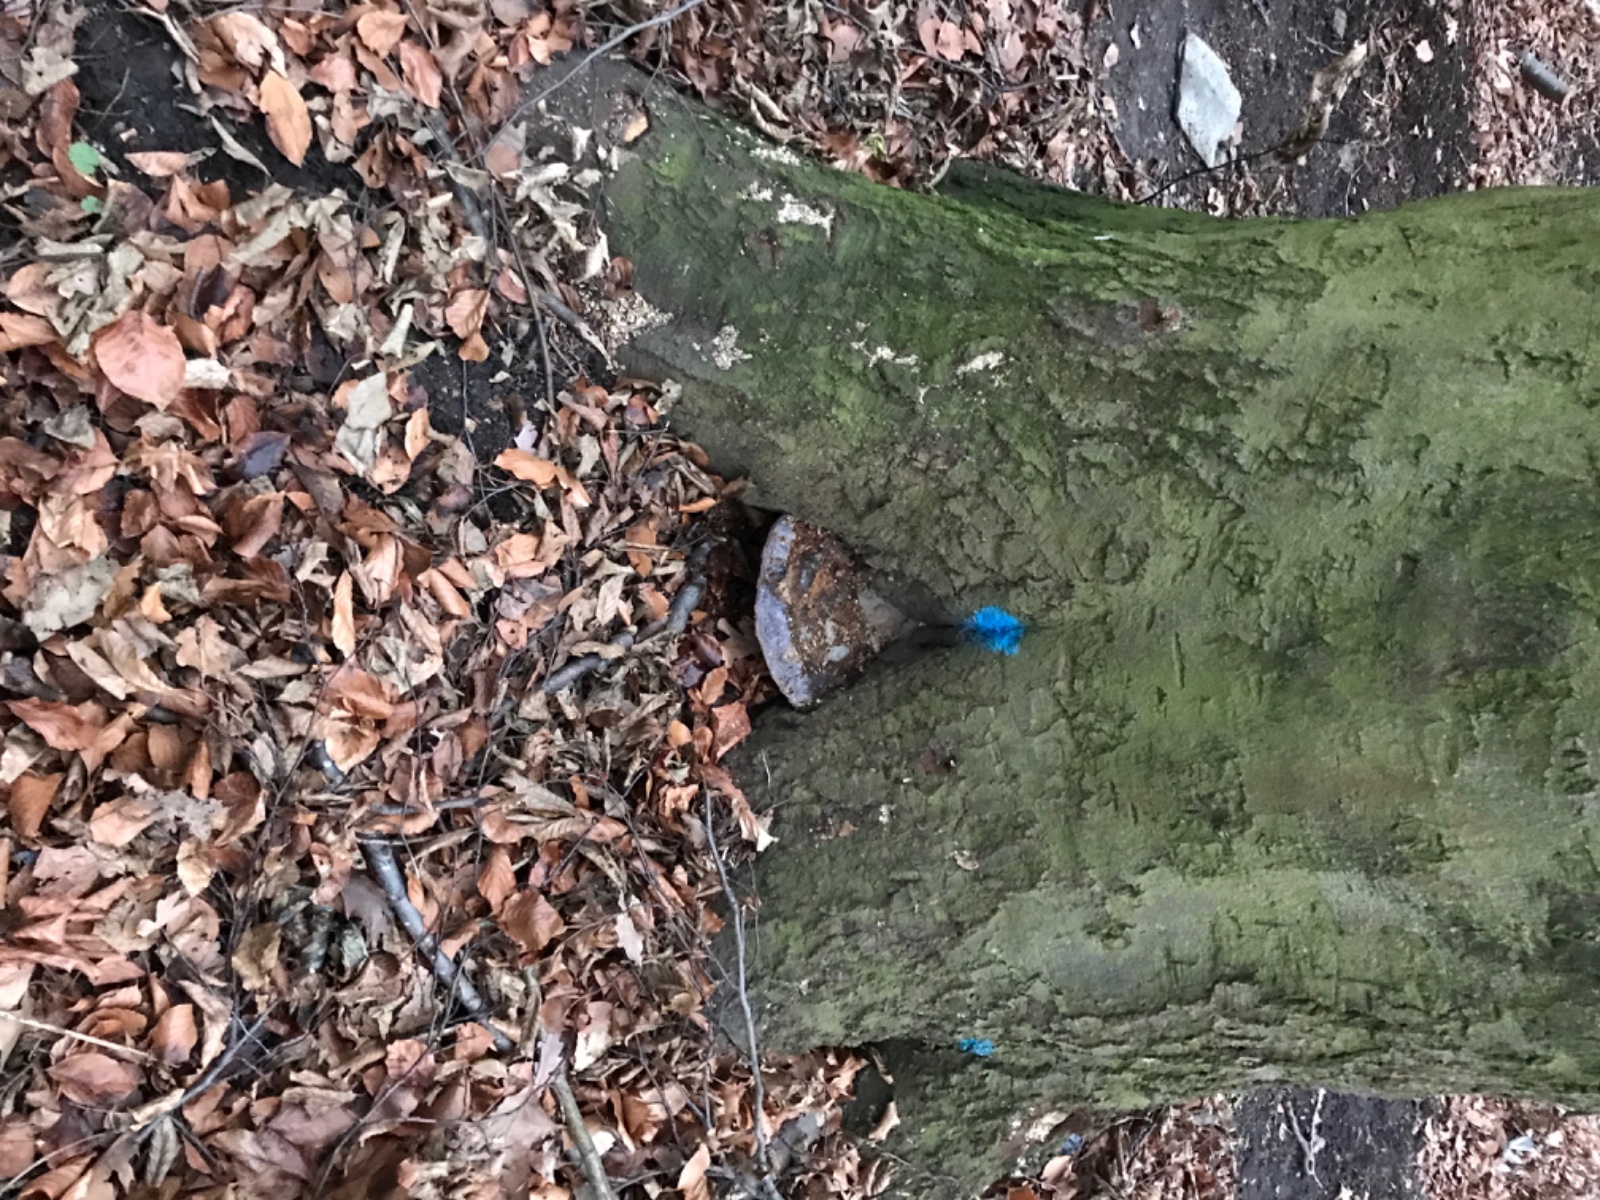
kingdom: Fungi
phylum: Basidiomycota
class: Agaricomycetes
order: Polyporales
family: Polyporaceae
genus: Ganoderma
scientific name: Ganoderma pfeifferi
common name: kobberrød lakporesvamp
